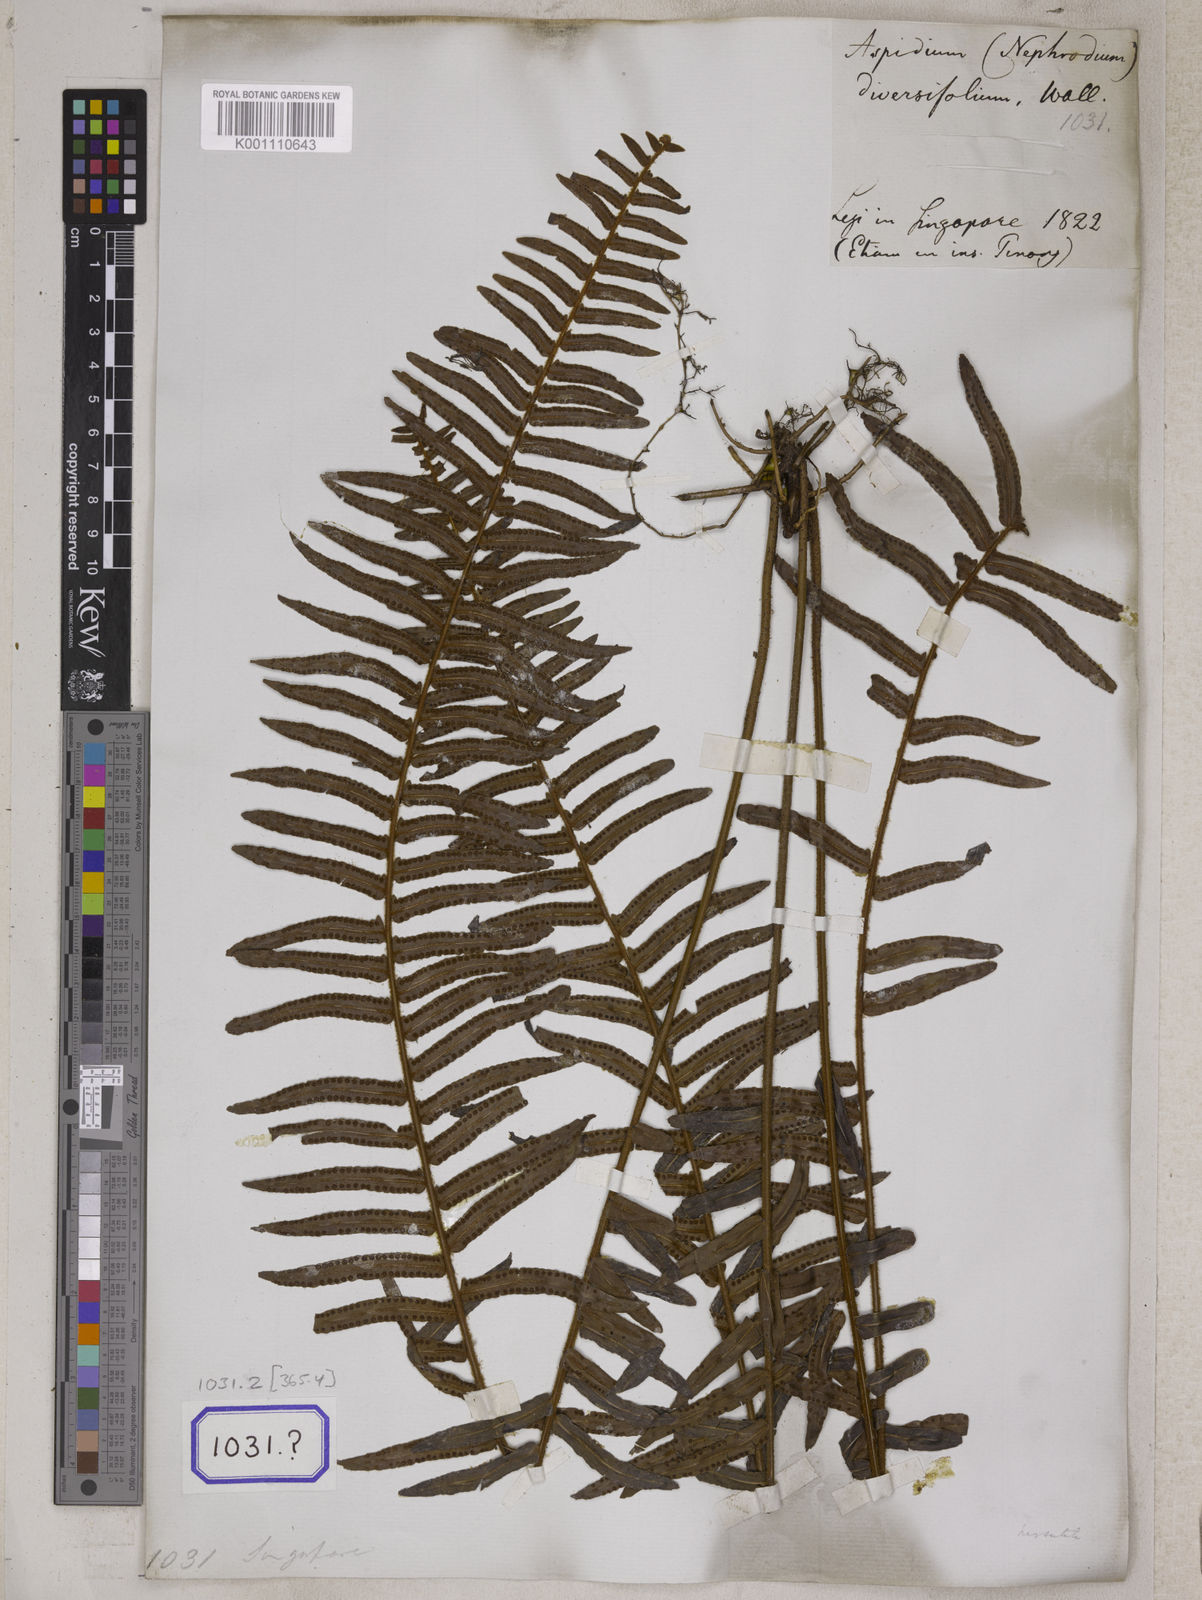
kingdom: Plantae
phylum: Tracheophyta
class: Polypodiopsida
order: Polypodiales
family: Nephrolepidaceae
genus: Nephrolepis
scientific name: Nephrolepis exaltata
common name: Sword fern
